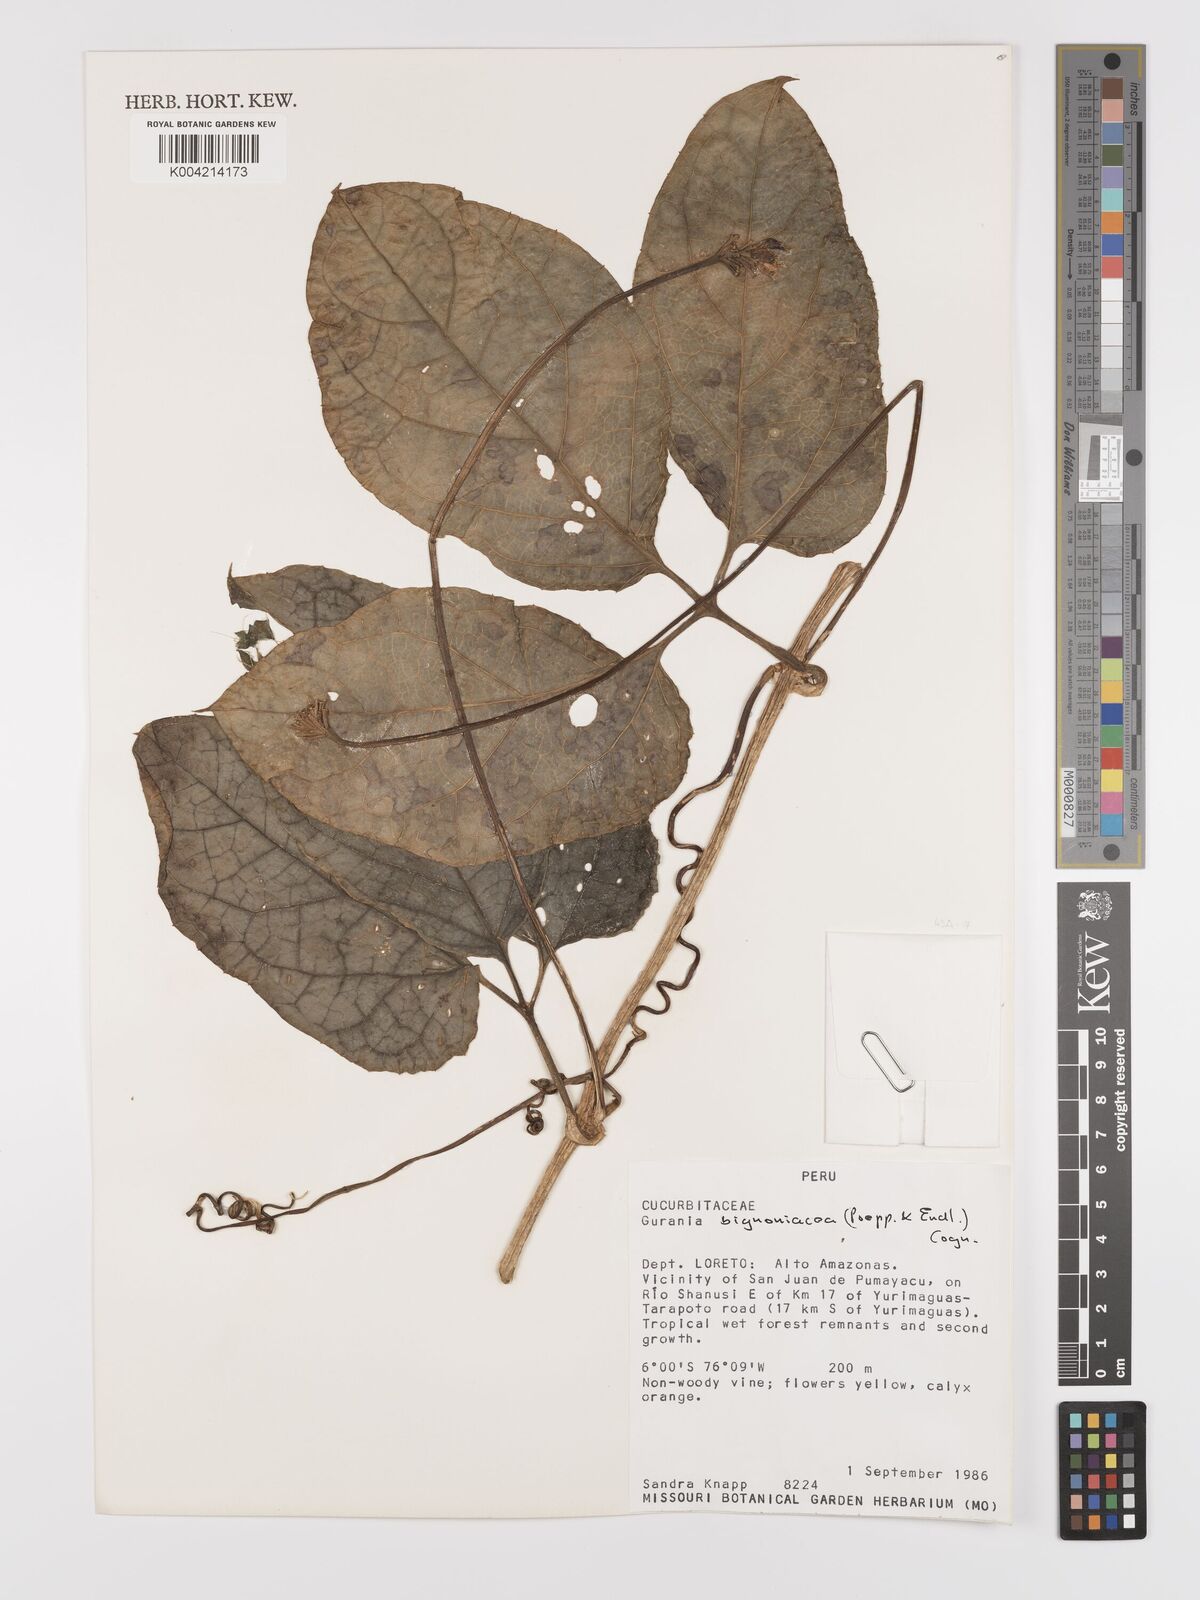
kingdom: Plantae
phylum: Tracheophyta
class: Magnoliopsida
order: Cucurbitales
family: Cucurbitaceae
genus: Gurania
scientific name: Gurania bignoniacea
